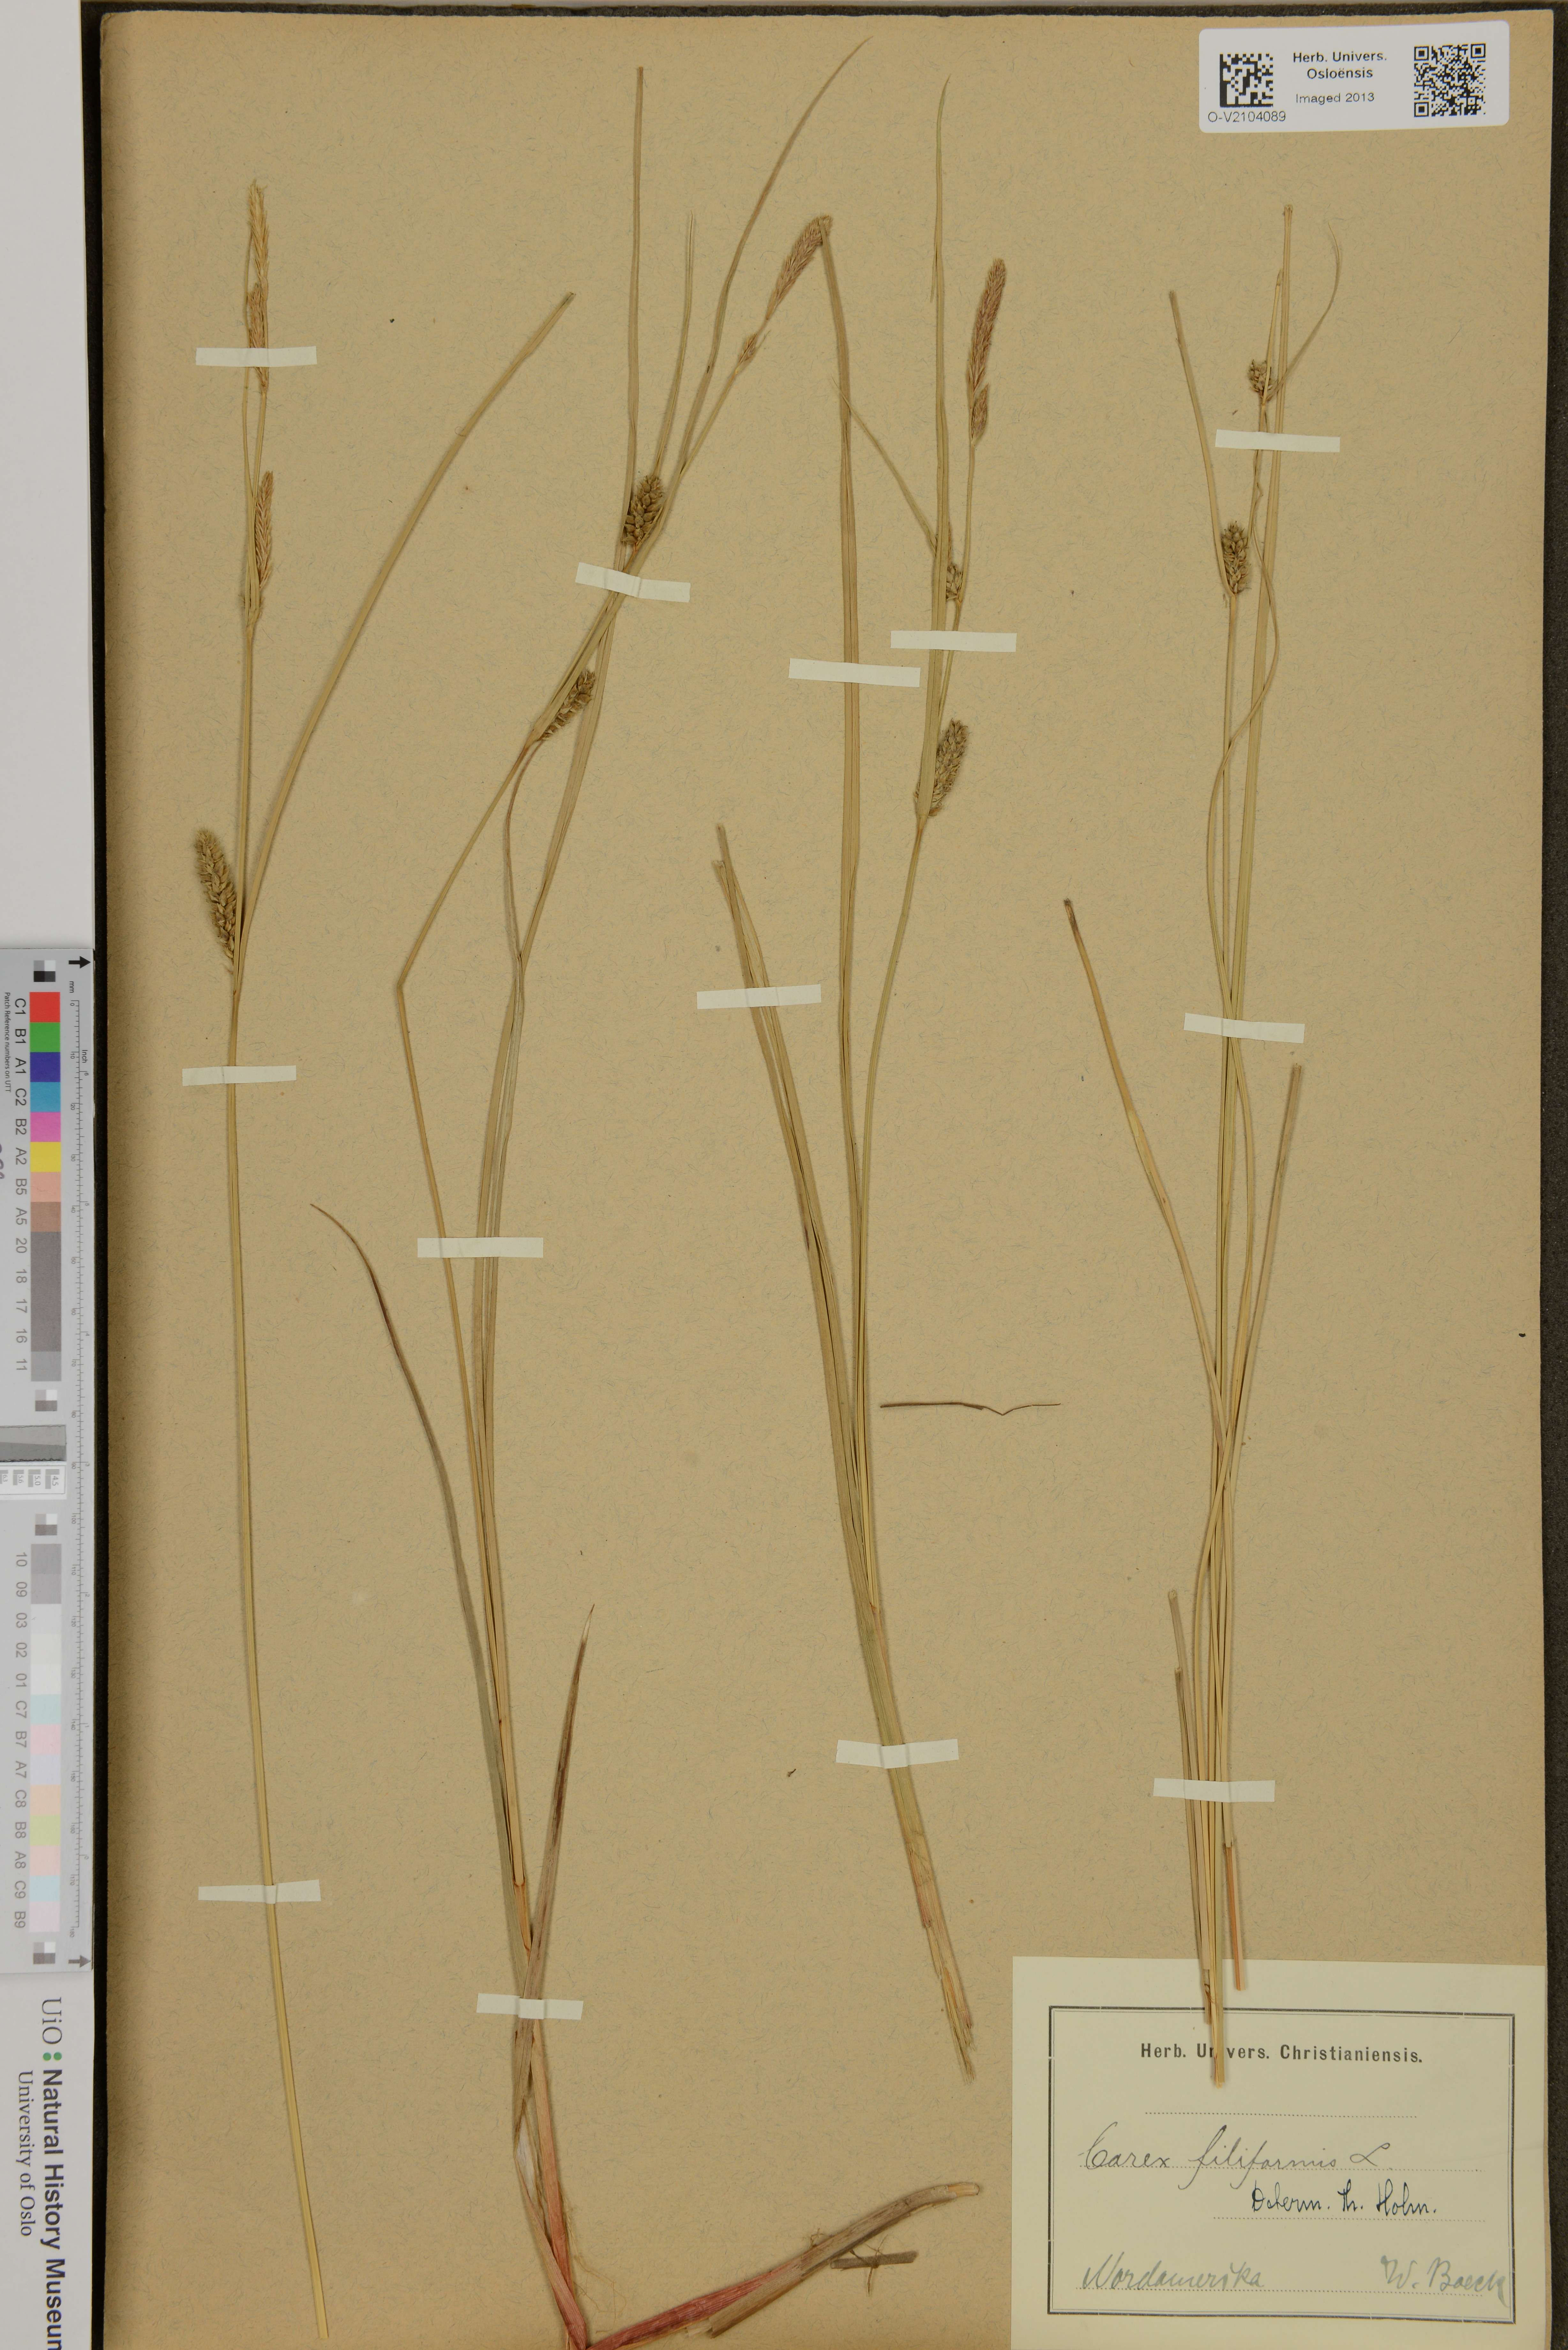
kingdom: Plantae
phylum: Tracheophyta
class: Liliopsida
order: Poales
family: Cyperaceae
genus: Carex
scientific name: Carex montana
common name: Soft-leaved sedge
